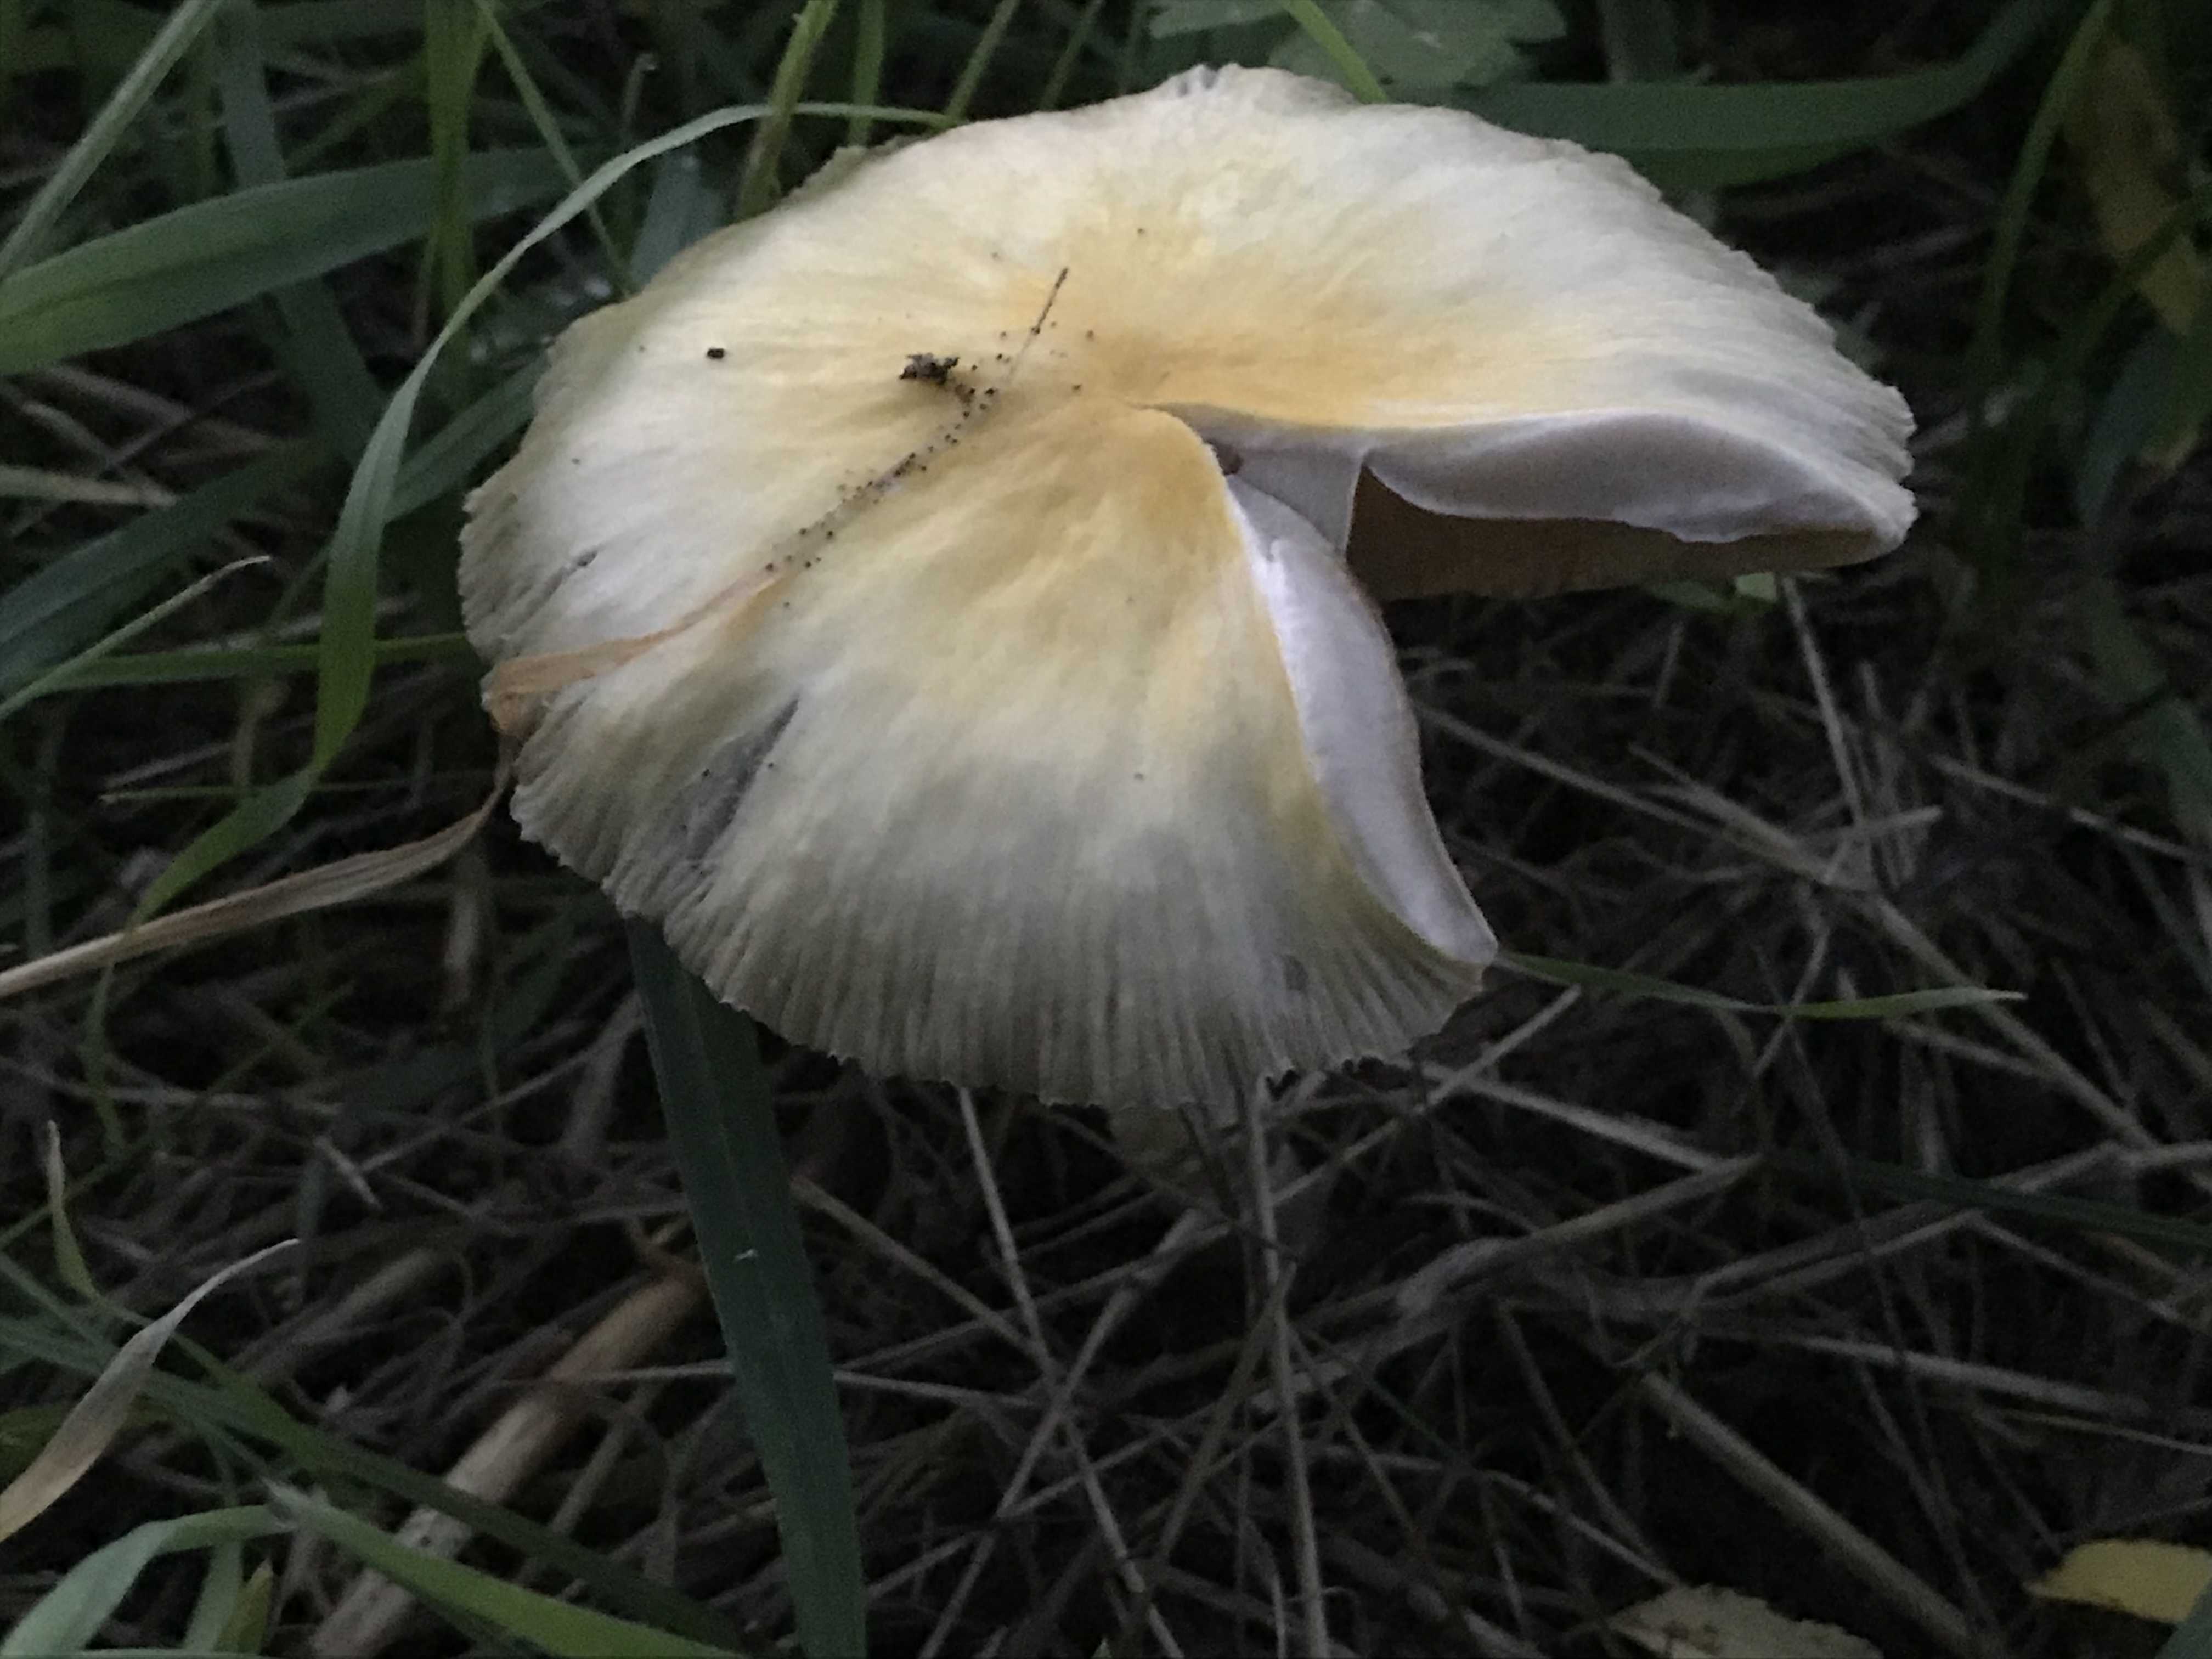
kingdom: Fungi
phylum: Basidiomycota
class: Agaricomycetes
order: Agaricales
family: Bolbitiaceae
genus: Bolbitius
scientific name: Bolbitius titubans
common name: almindelig gulhat
